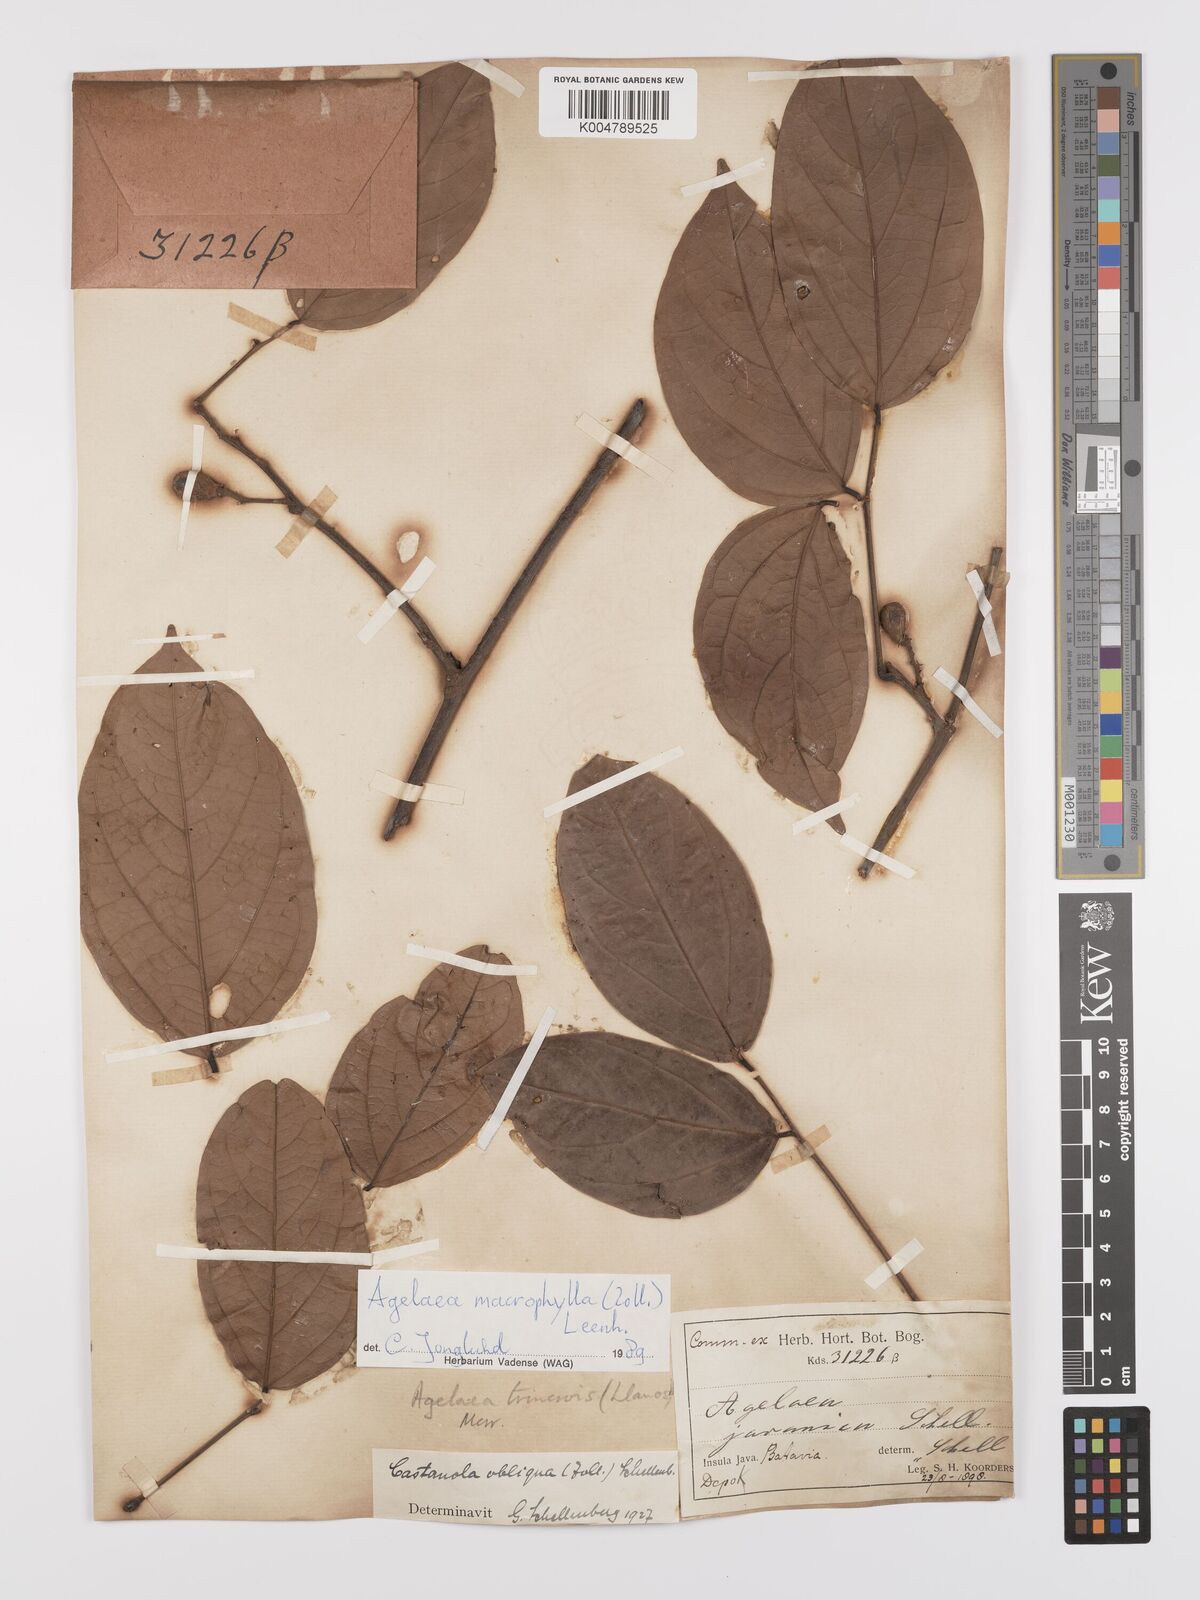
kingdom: Plantae
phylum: Tracheophyta
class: Magnoliopsida
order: Oxalidales
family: Connaraceae
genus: Agelaea
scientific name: Agelaea trinervis
